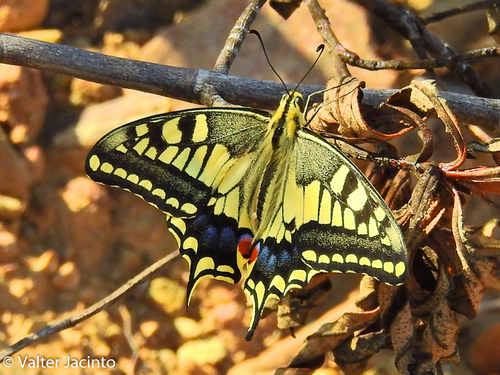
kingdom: Animalia
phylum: Arthropoda
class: Insecta
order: Lepidoptera
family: Papilionidae
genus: Papilio
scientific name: Papilio machaon
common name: Swallowtail
